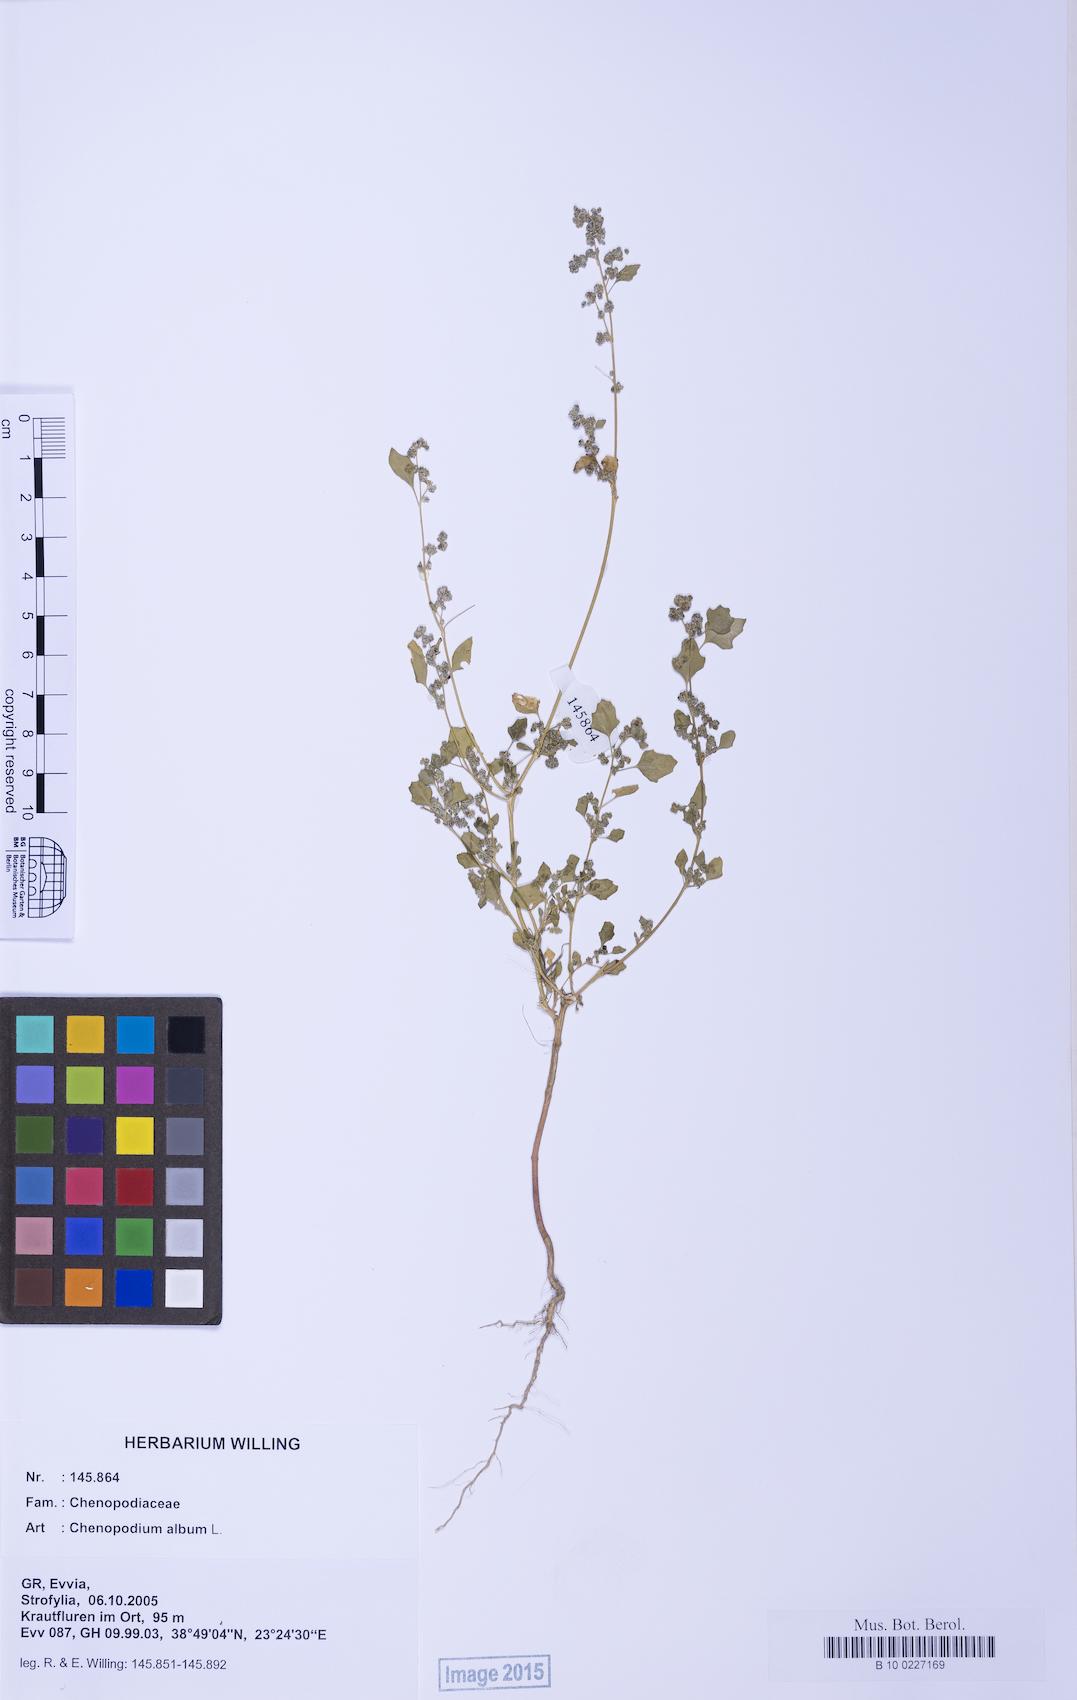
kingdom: Plantae
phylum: Tracheophyta
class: Magnoliopsida
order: Caryophyllales
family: Amaranthaceae
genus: Chenopodium
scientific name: Chenopodium album
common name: Fat-hen
